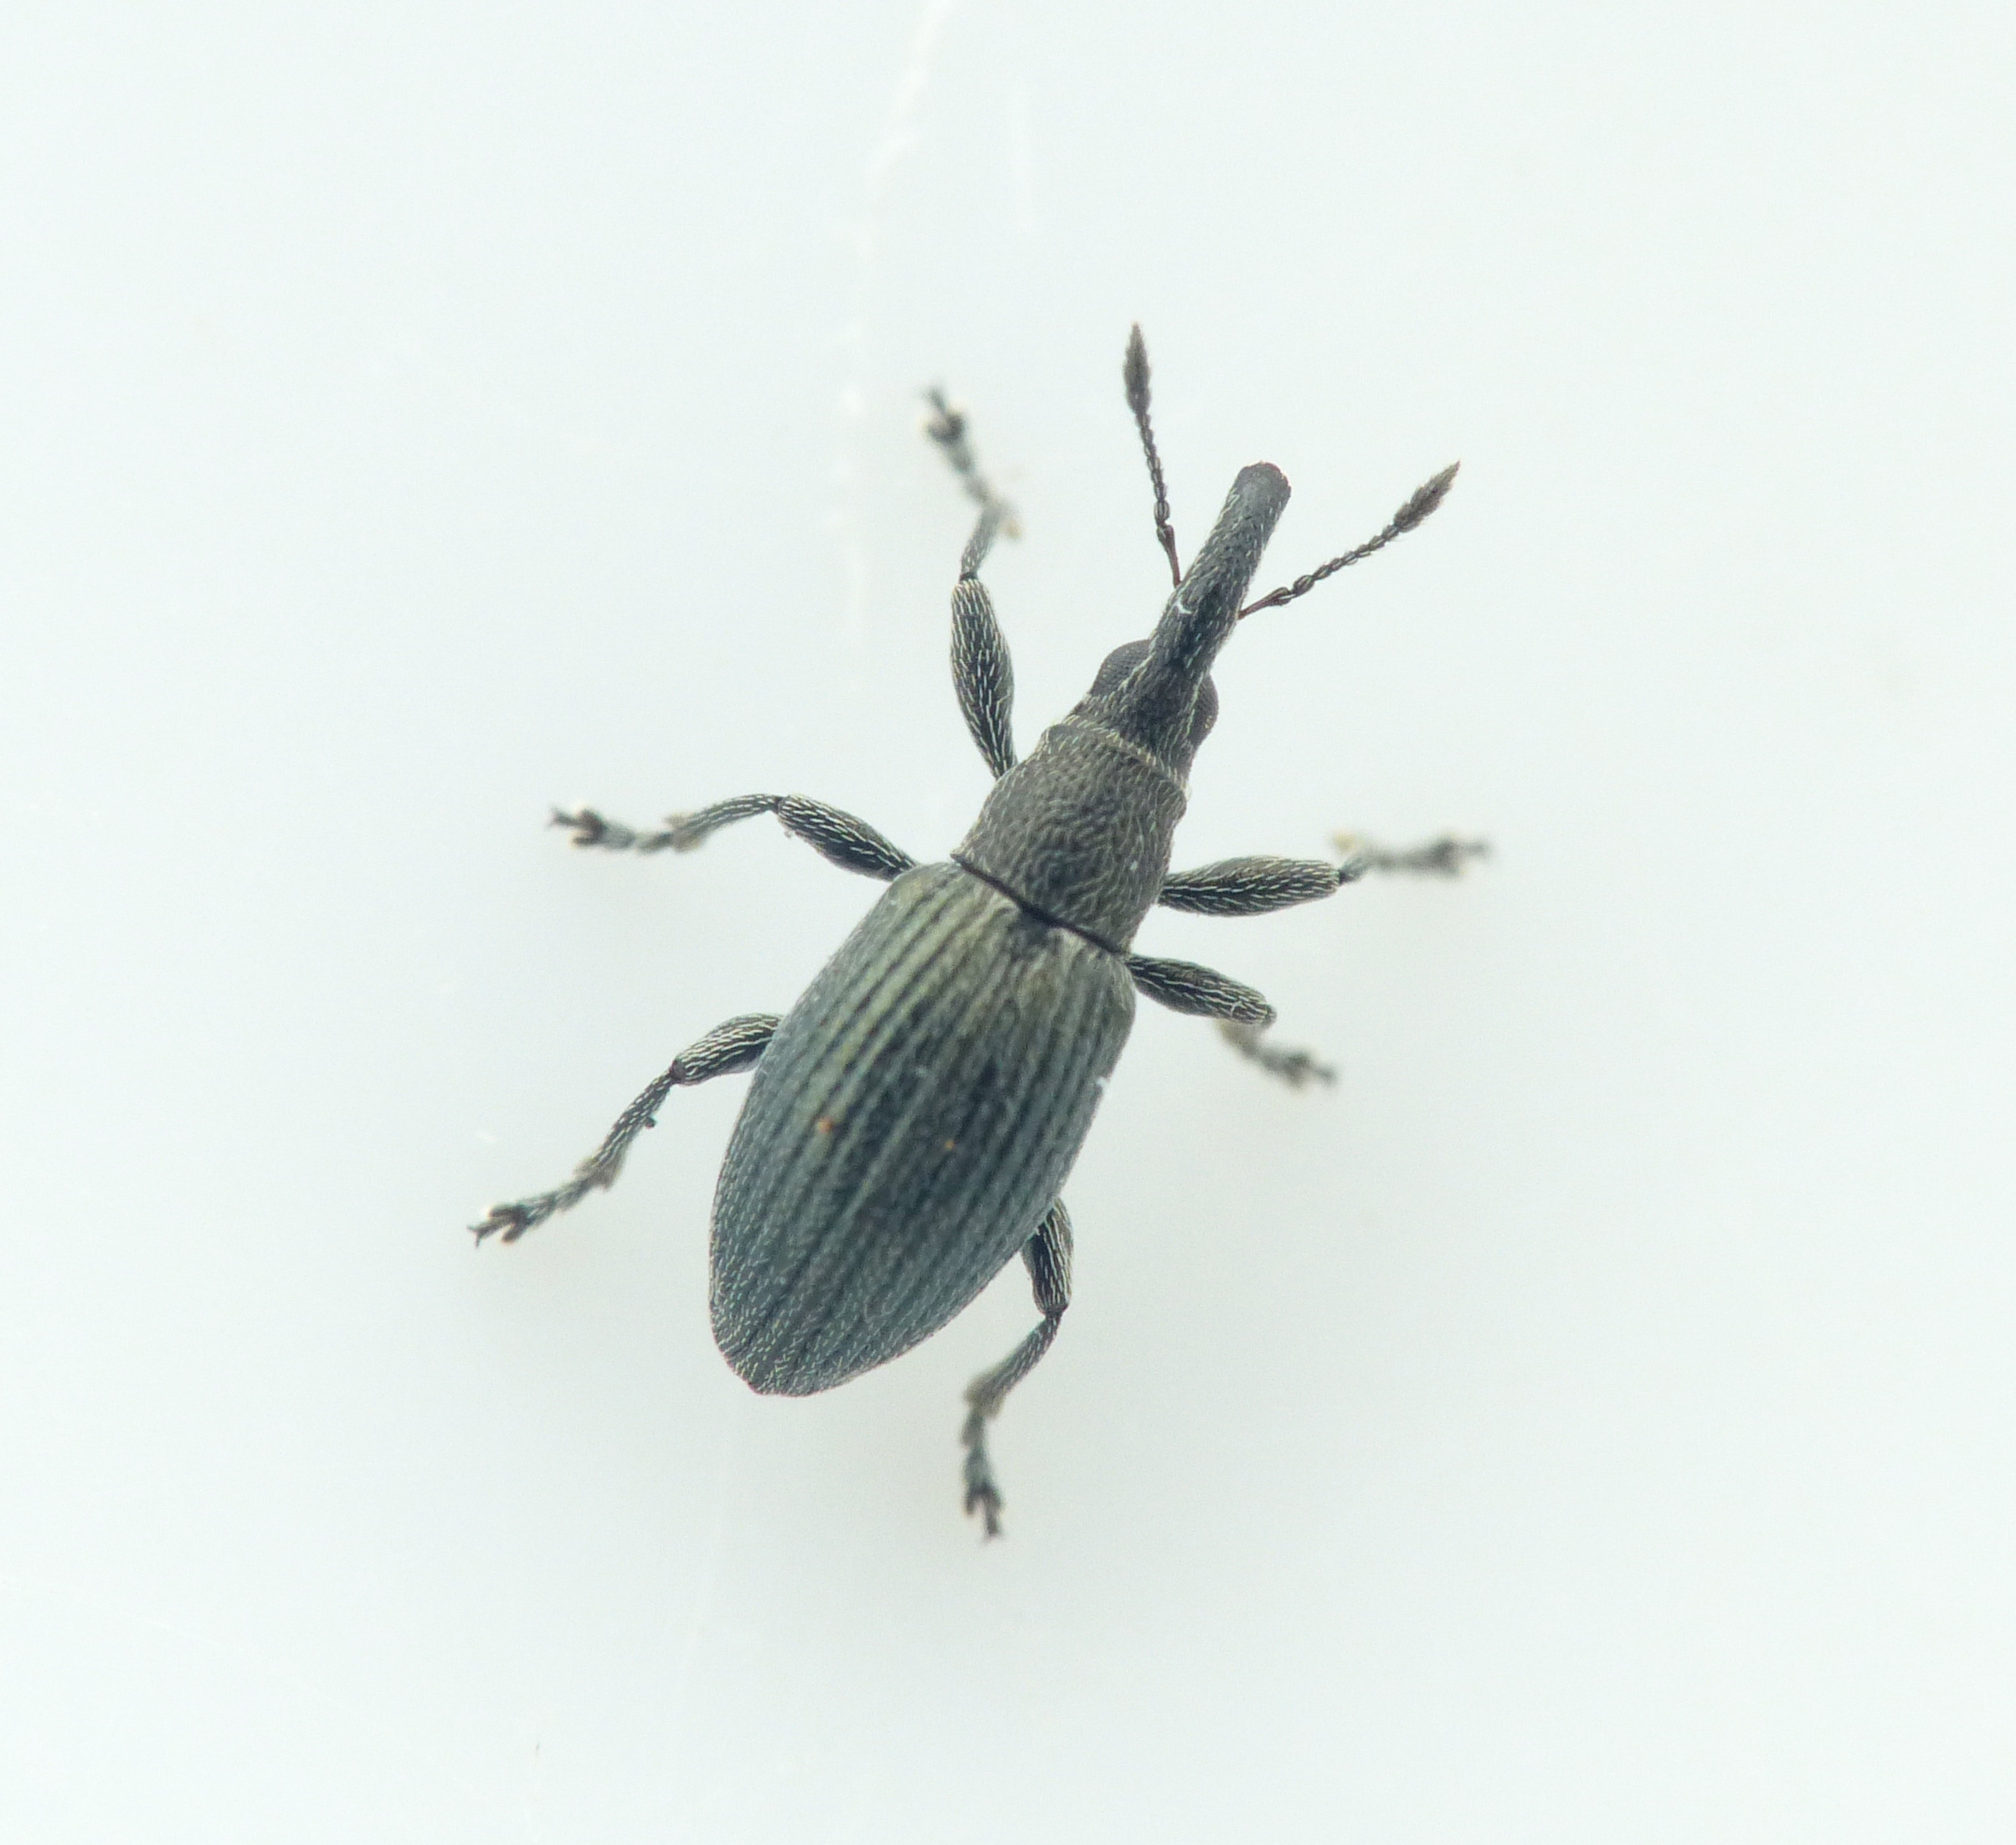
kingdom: Animalia
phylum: Arthropoda
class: Insecta
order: Coleoptera
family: Apionidae
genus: Aspidapion
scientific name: Aspidapion radiolus
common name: Stokrosesnudebille
